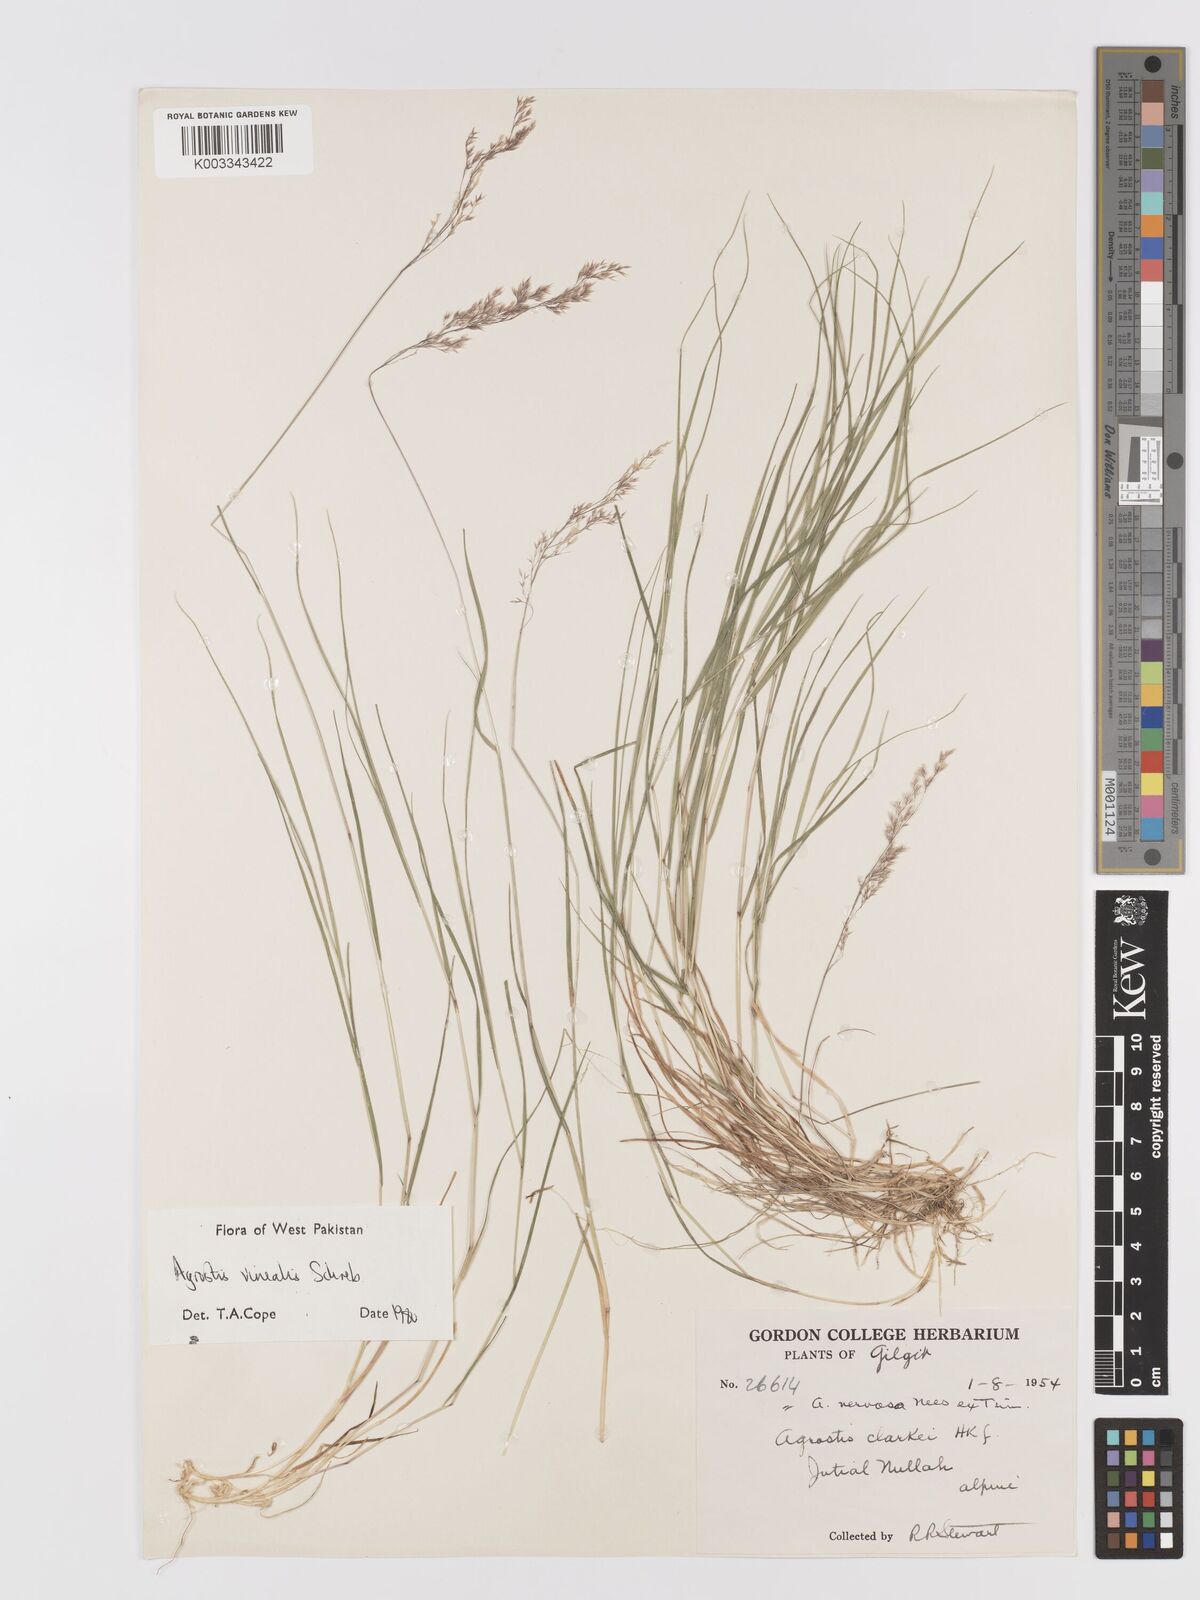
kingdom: Plantae
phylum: Tracheophyta
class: Liliopsida
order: Poales
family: Poaceae
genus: Agrostis
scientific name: Agrostis vinealis
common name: Brown bent
